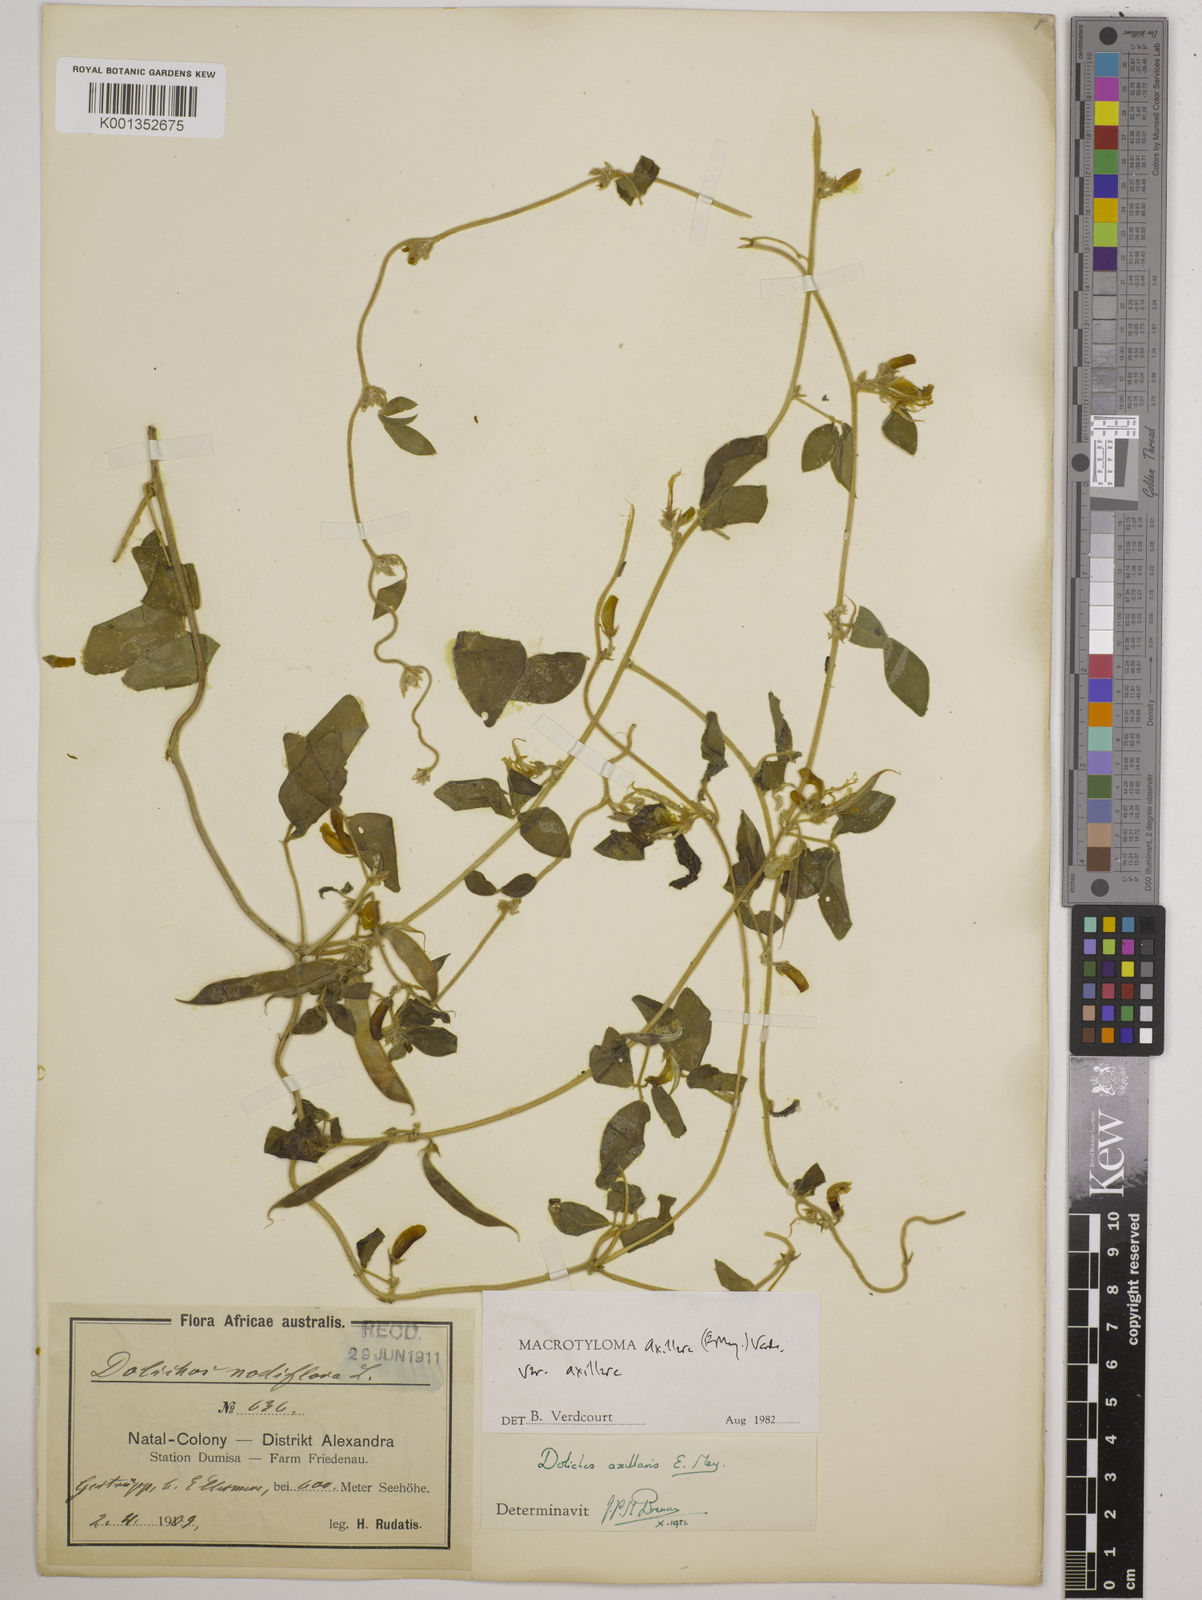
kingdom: Plantae
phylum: Tracheophyta
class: Magnoliopsida
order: Fabales
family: Fabaceae
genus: Macrotyloma
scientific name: Macrotyloma axillare
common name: Perennial horsegram
